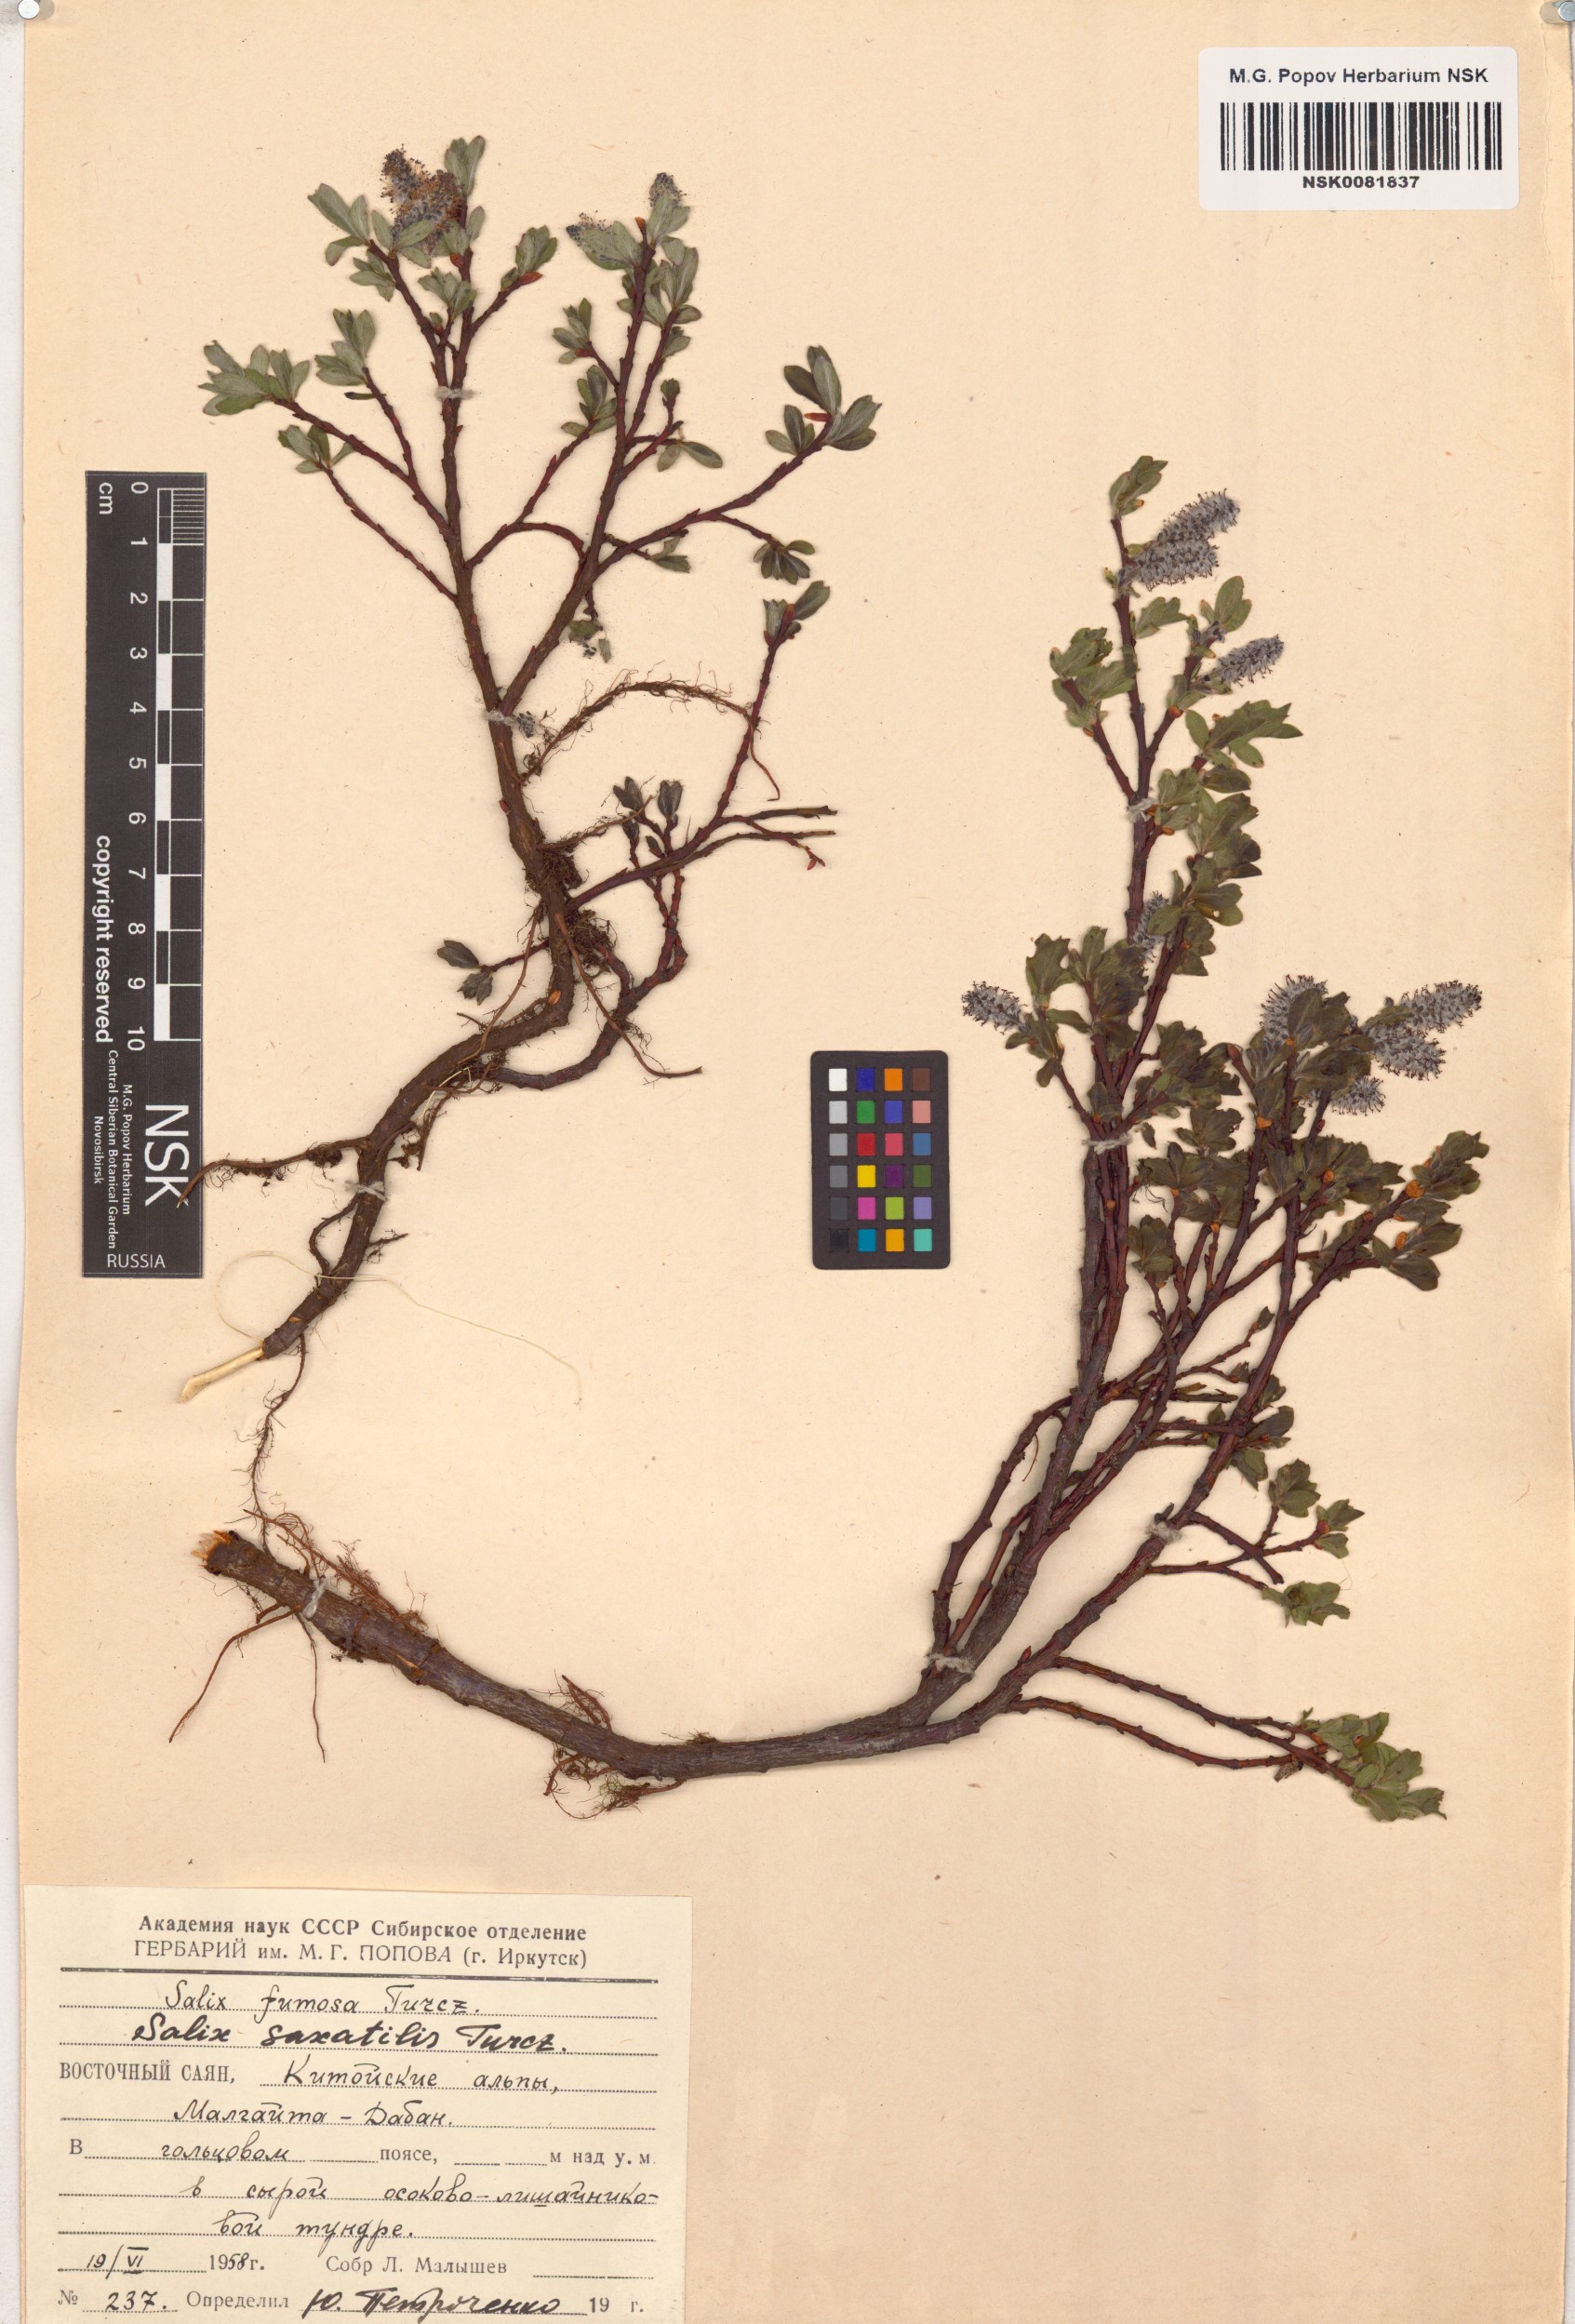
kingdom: Plantae
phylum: Tracheophyta
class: Magnoliopsida
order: Malpighiales
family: Salicaceae
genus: Salix
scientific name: Salix saxatilis
